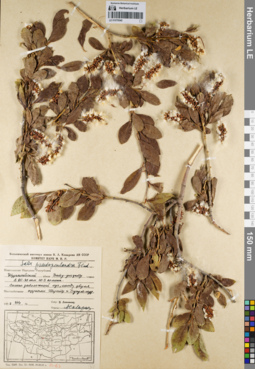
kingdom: Plantae
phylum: Tracheophyta
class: Magnoliopsida
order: Malpighiales
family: Salicaceae
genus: Salix
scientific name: Salix pseudopentandra
